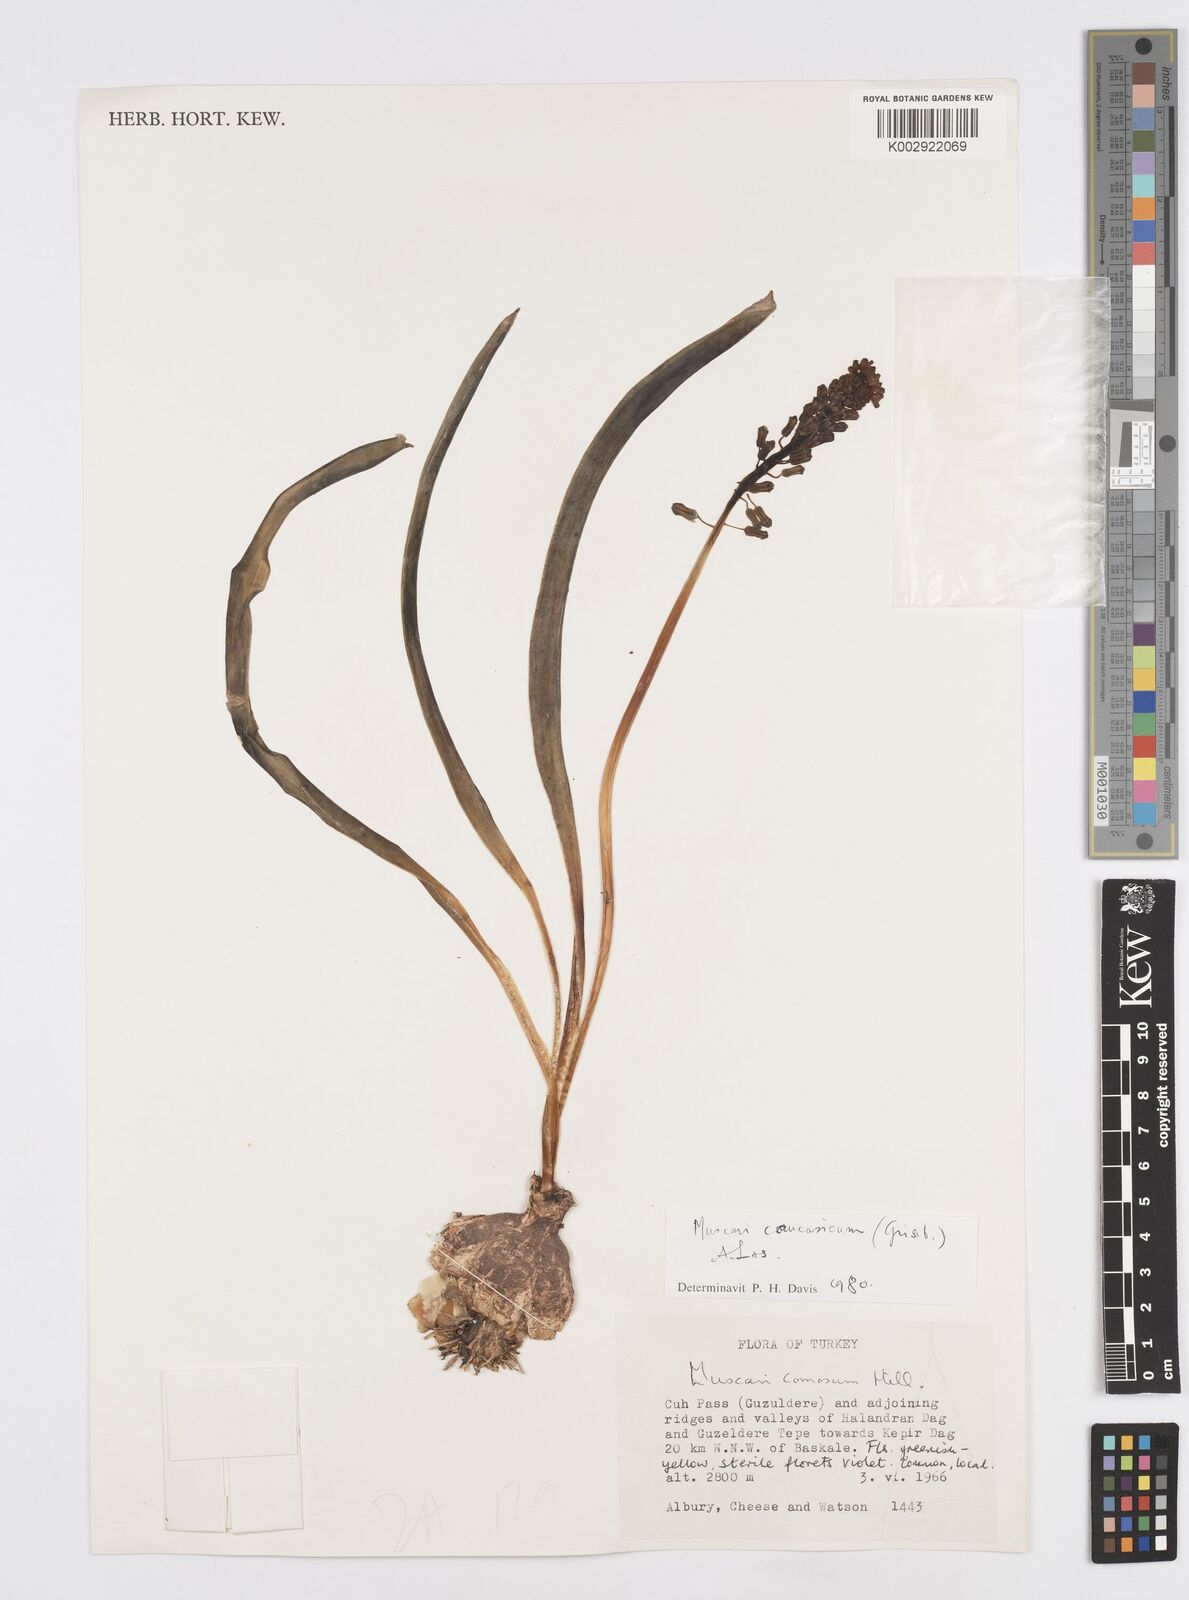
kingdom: Plantae
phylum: Tracheophyta
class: Liliopsida
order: Asparagales
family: Asparagaceae
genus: Muscari
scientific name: Muscari caucasicum
